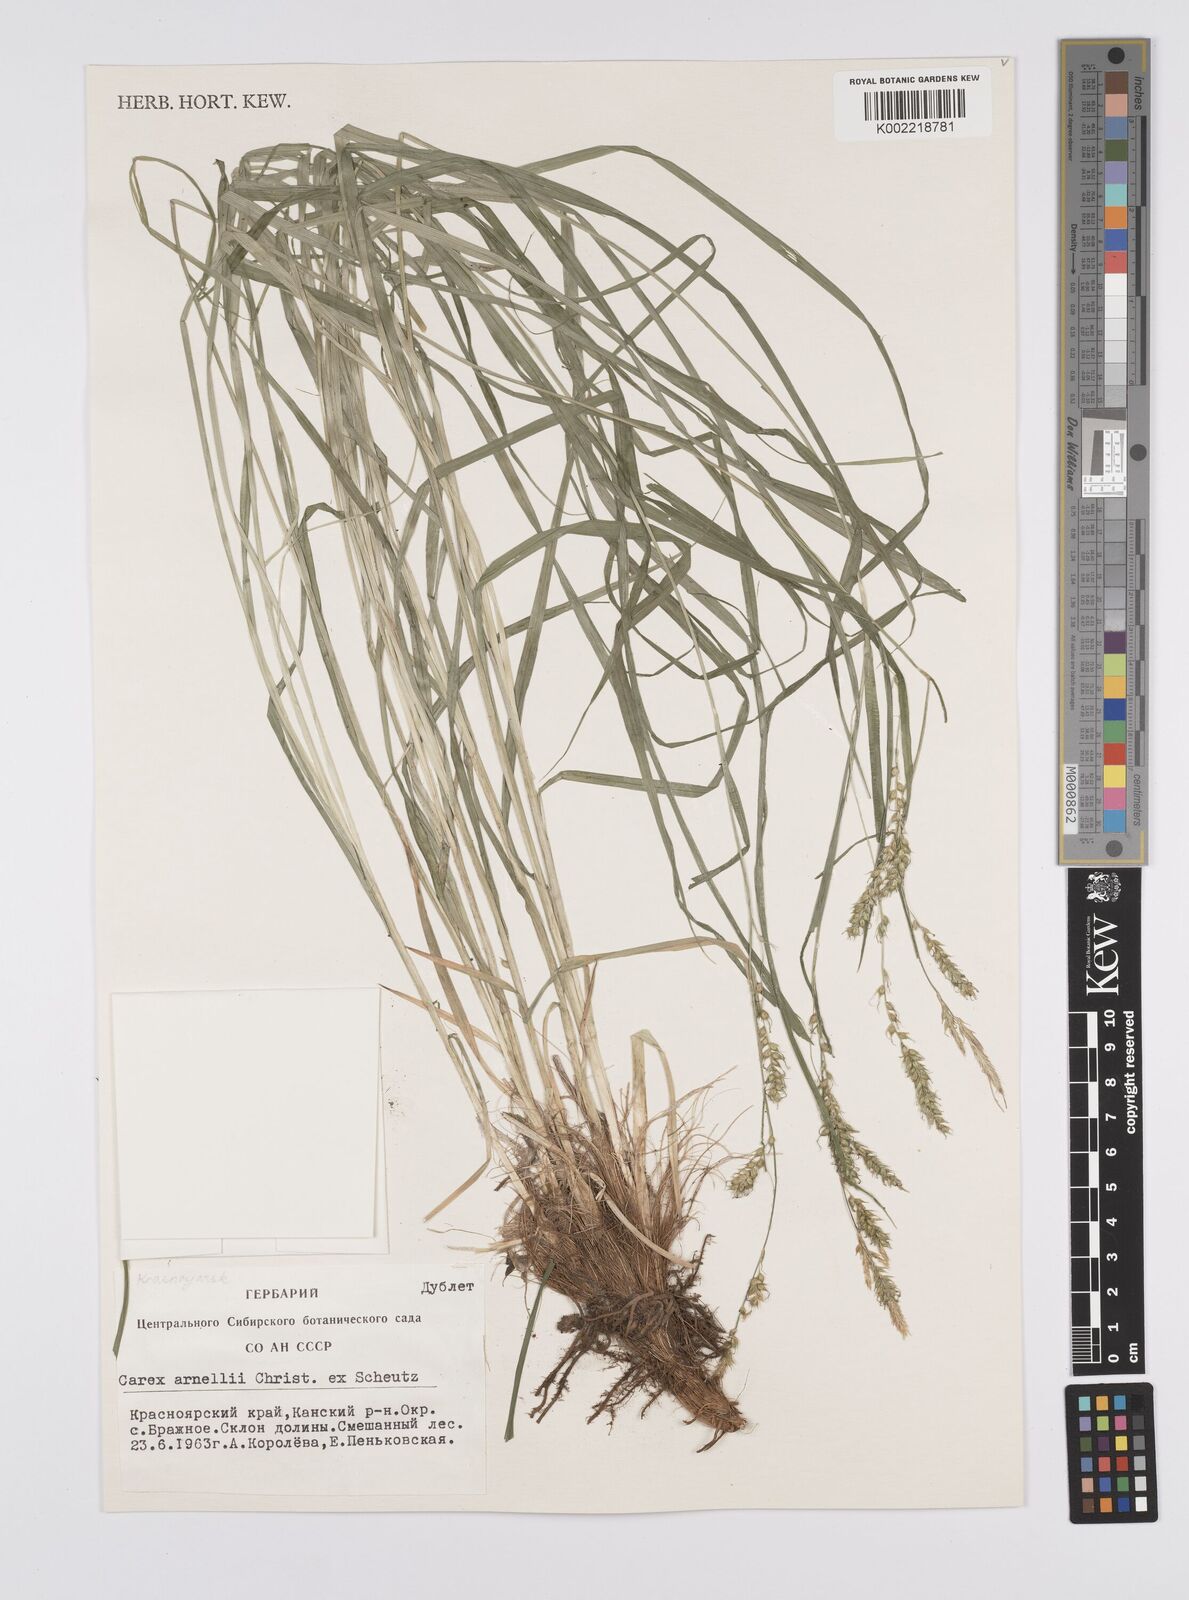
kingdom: Plantae
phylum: Tracheophyta
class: Liliopsida
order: Poales
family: Cyperaceae
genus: Carex
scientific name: Carex arnellii
